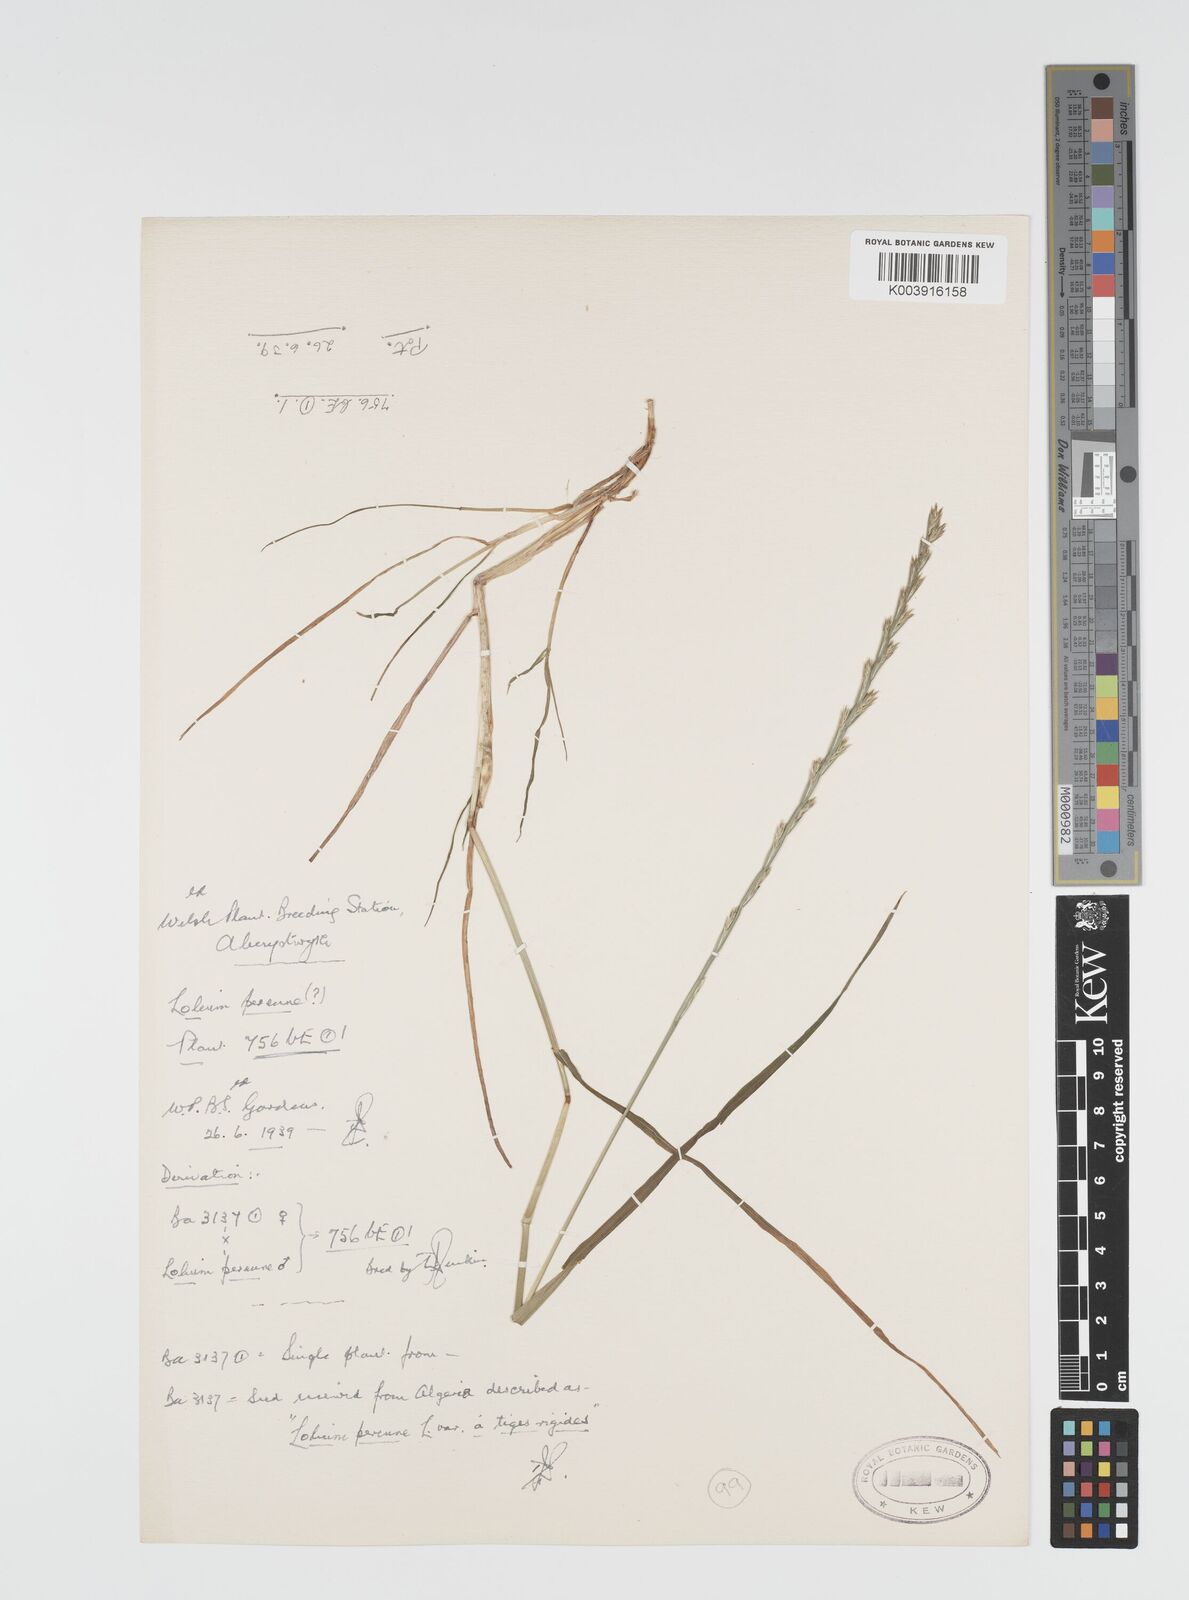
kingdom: Plantae
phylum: Tracheophyta
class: Liliopsida
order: Poales
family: Poaceae
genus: Lolium
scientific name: Lolium rigidum
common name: Wimmera ryegrass
